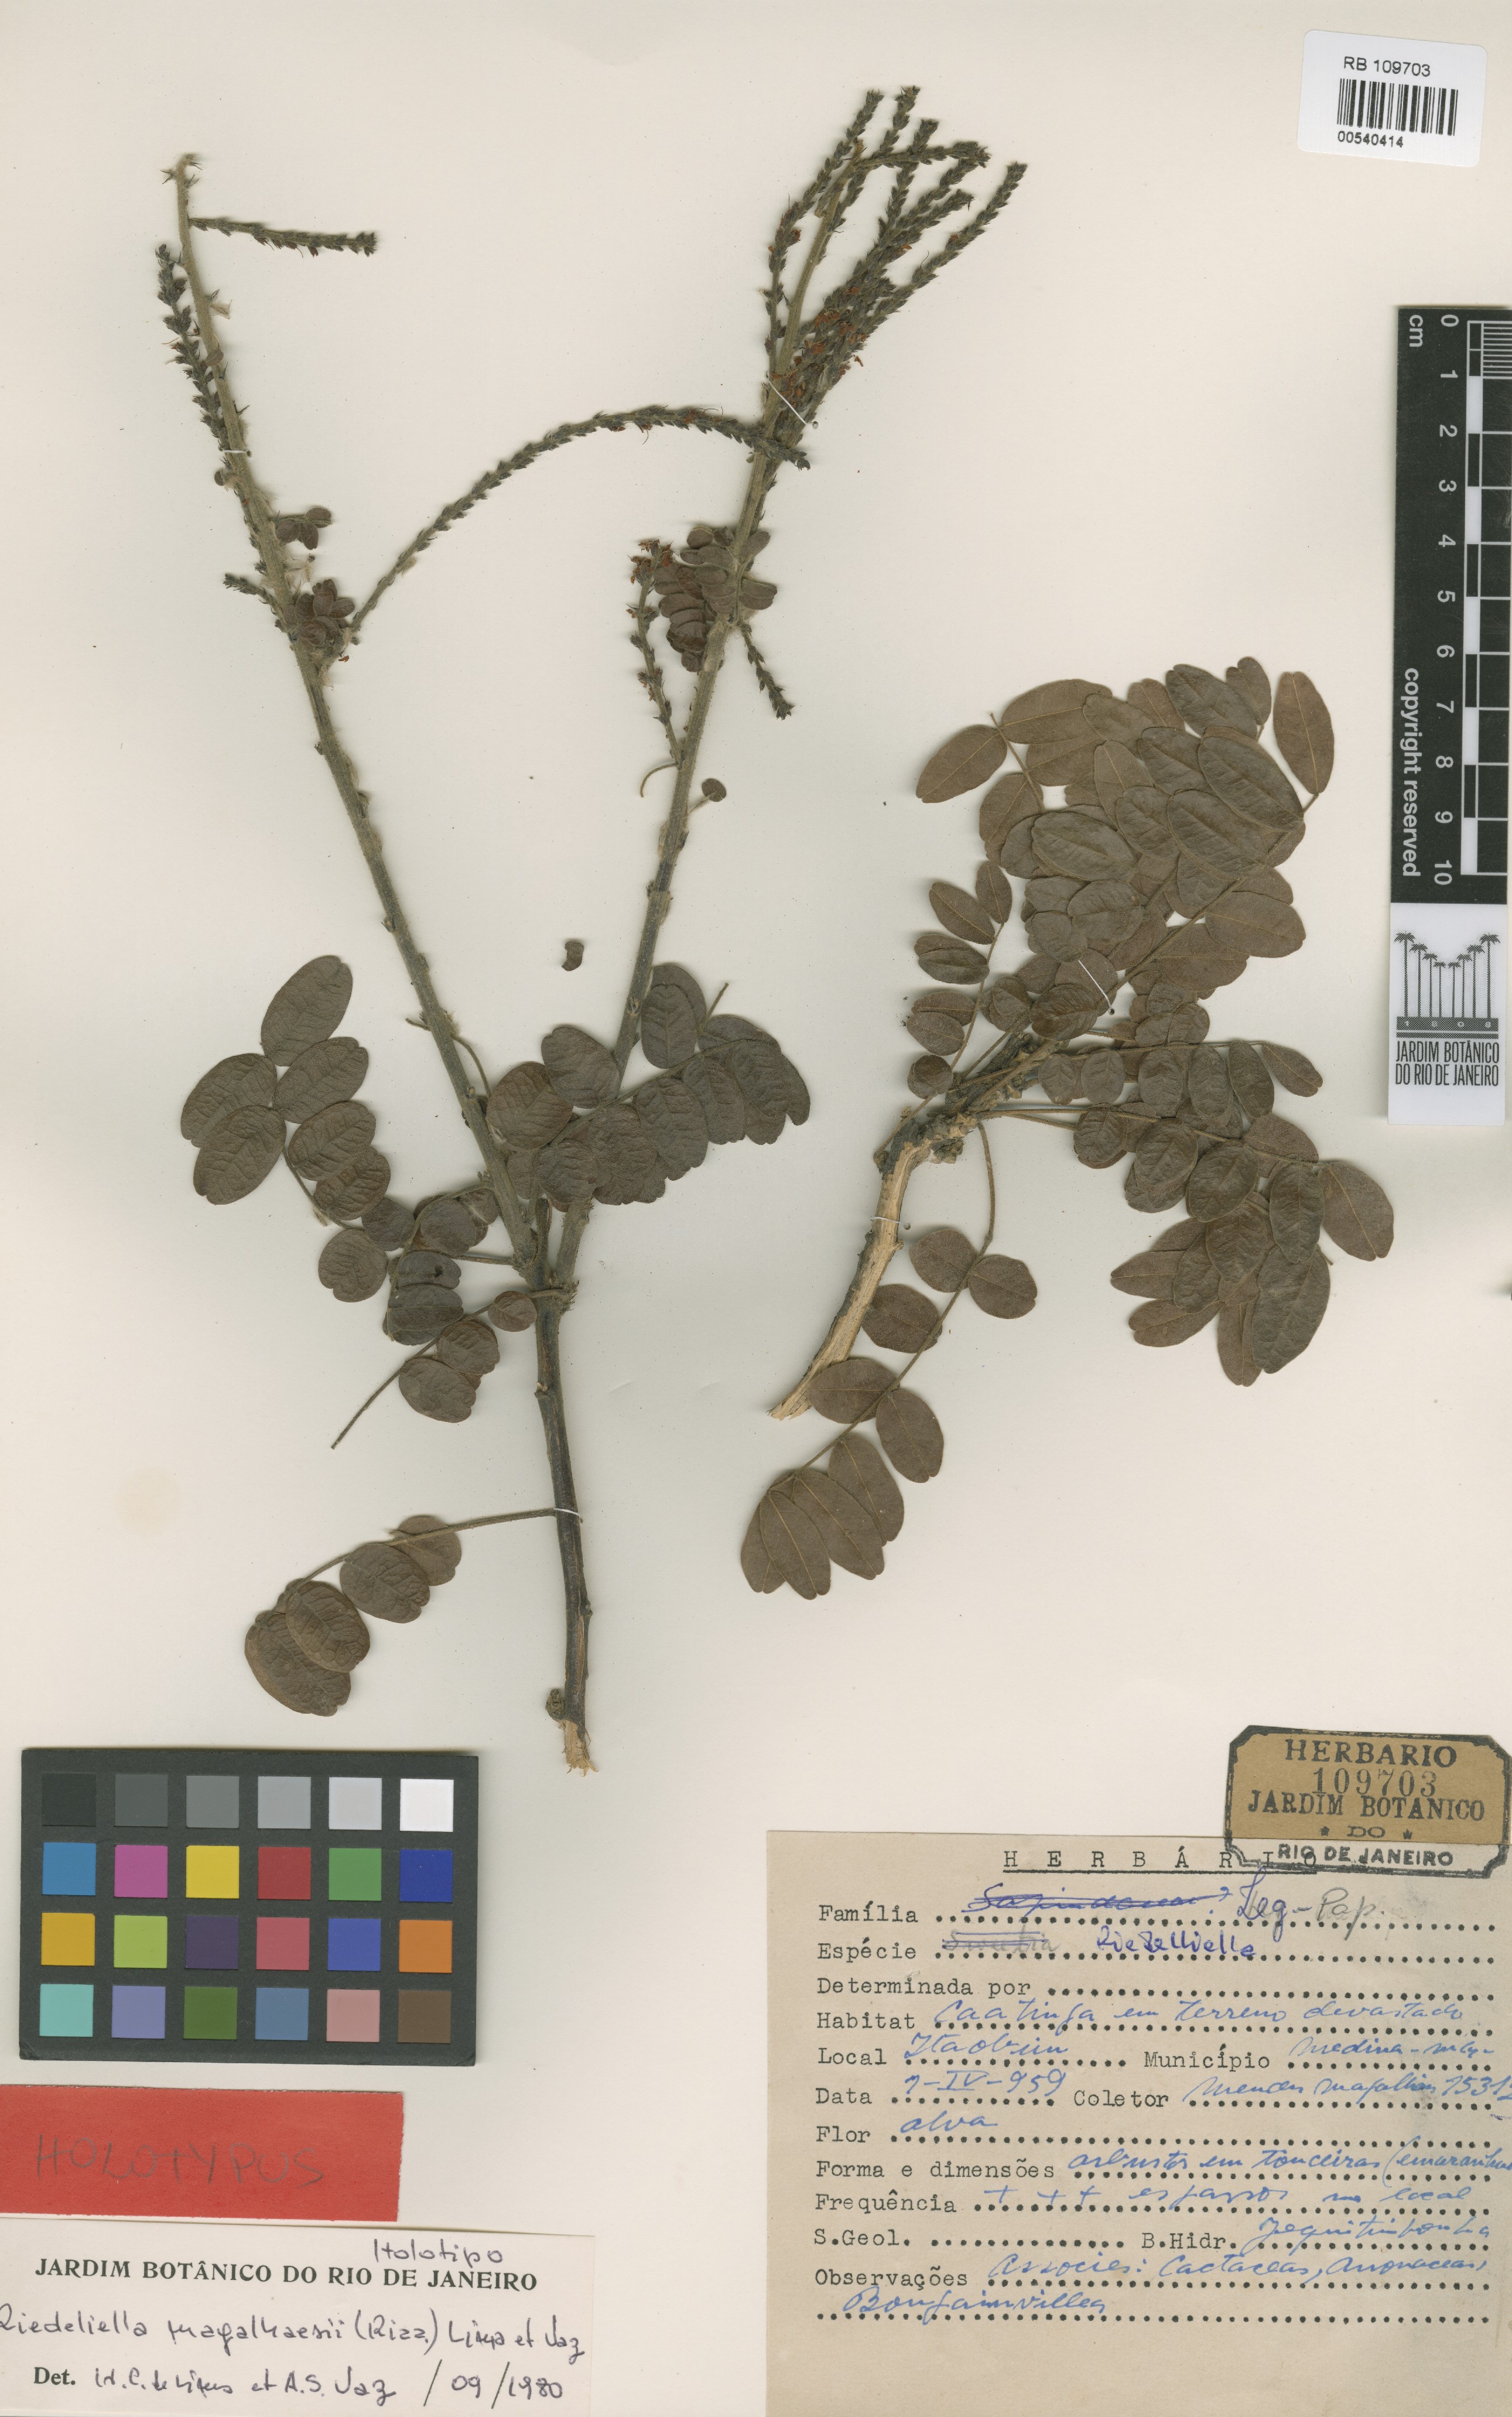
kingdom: Plantae
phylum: Tracheophyta
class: Magnoliopsida
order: Fabales
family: Fabaceae
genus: Riedeliella
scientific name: Riedeliella magalhaesii
